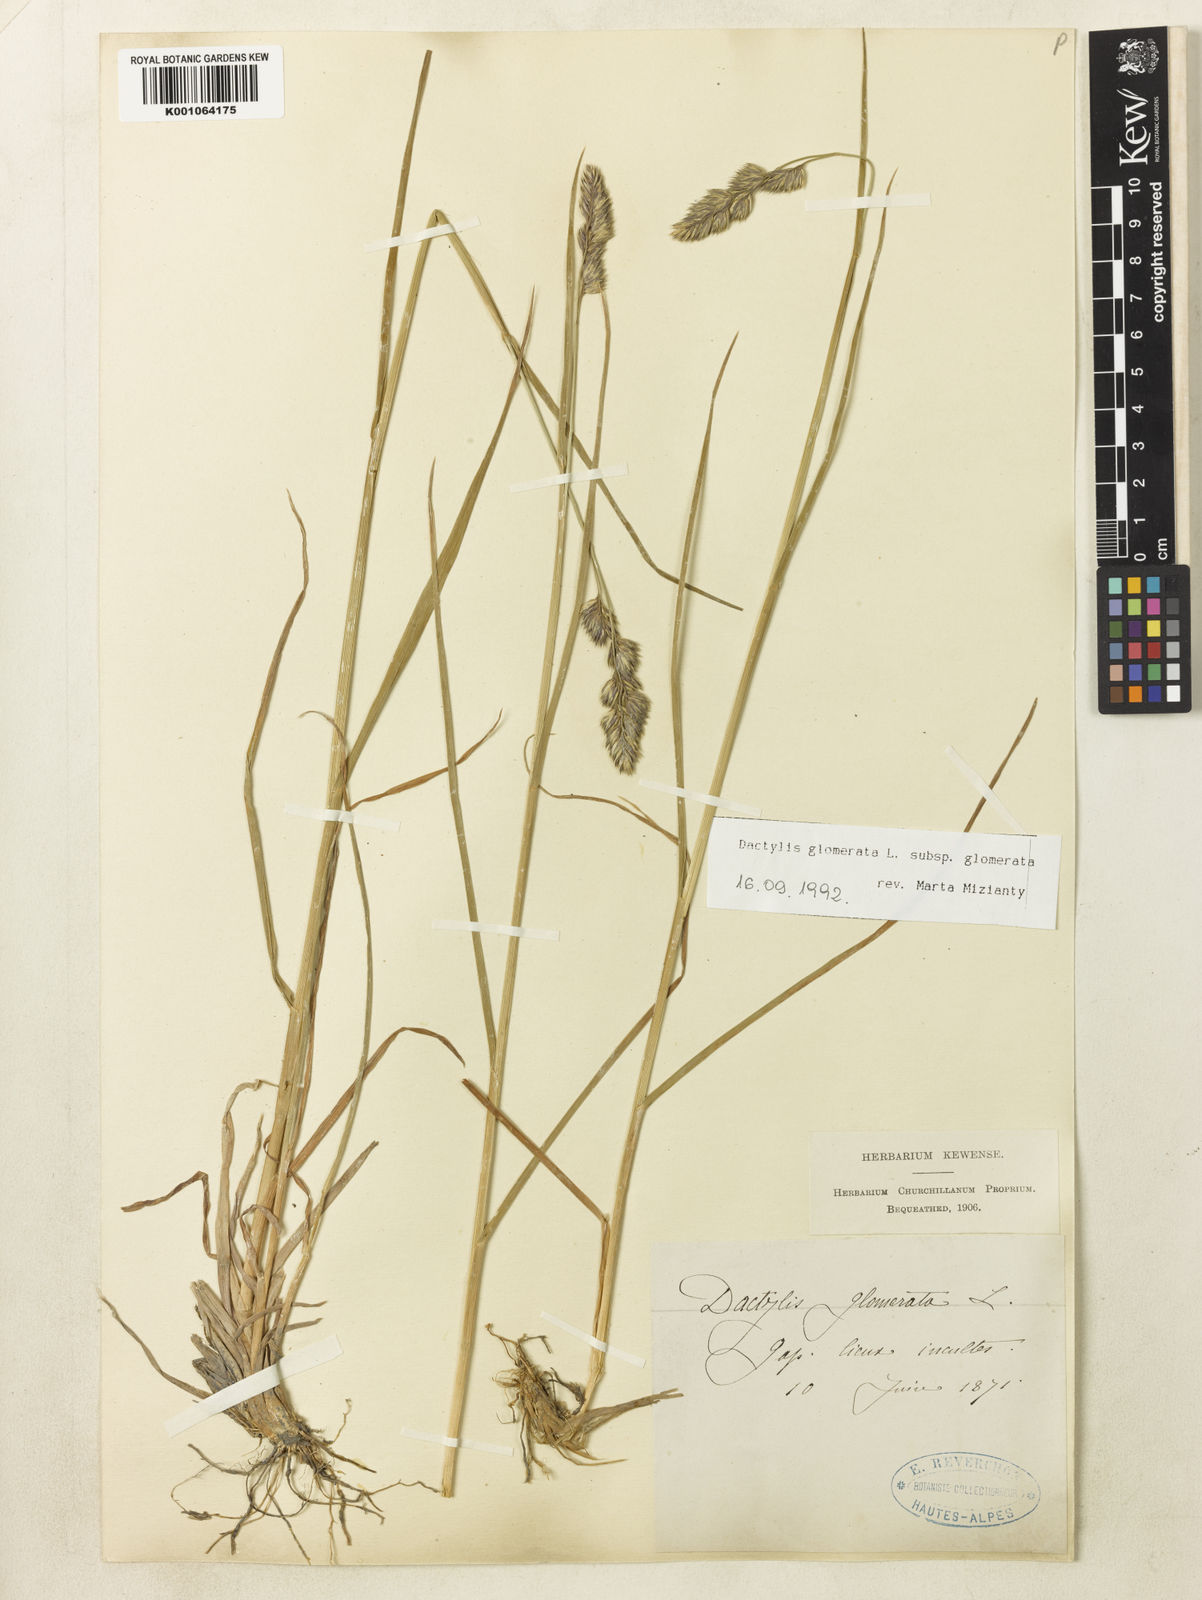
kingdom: Plantae
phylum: Tracheophyta
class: Liliopsida
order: Poales
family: Poaceae
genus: Dactylis
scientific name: Dactylis glomerata
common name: Orchardgrass
